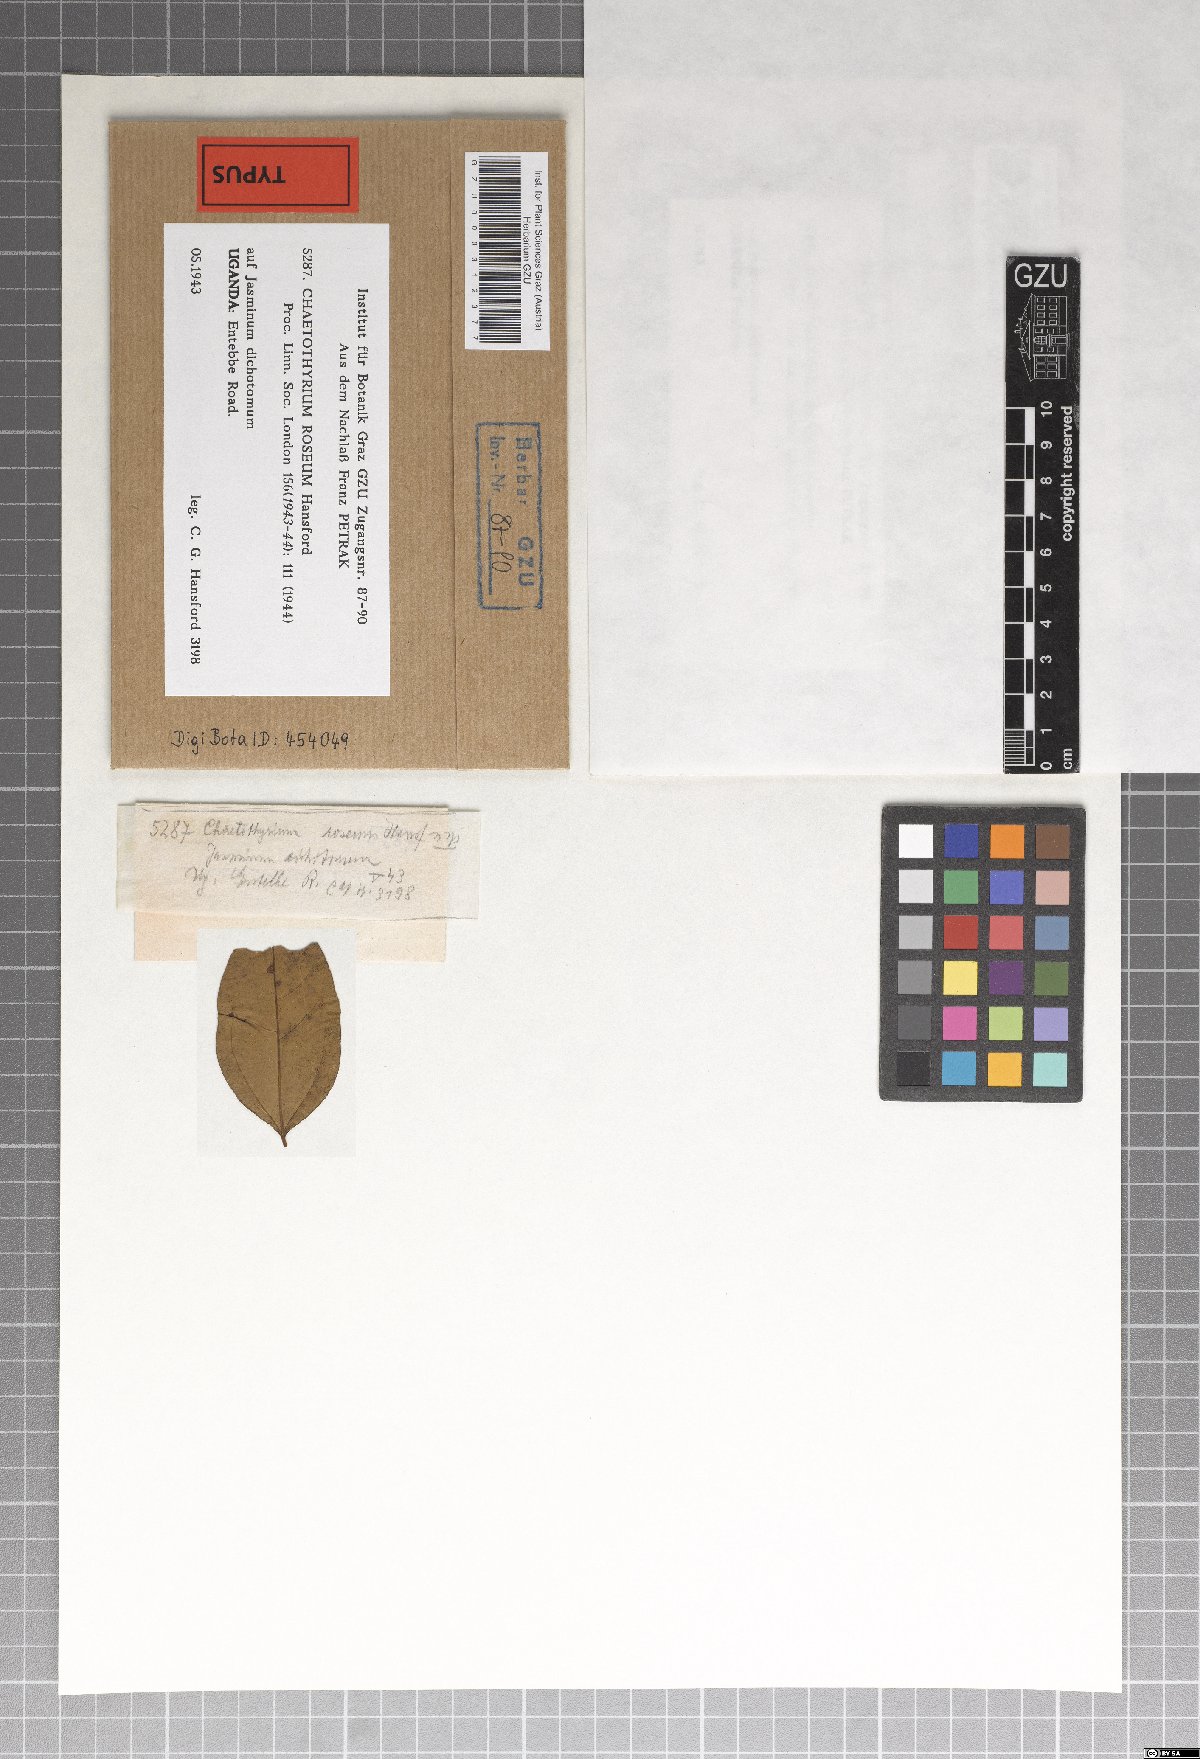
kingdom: Fungi
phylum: Ascomycota
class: Eurotiomycetes
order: Chaetothyriales
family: Chaetothyriaceae
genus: Chaetothyrium
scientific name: Chaetothyrium roseum
